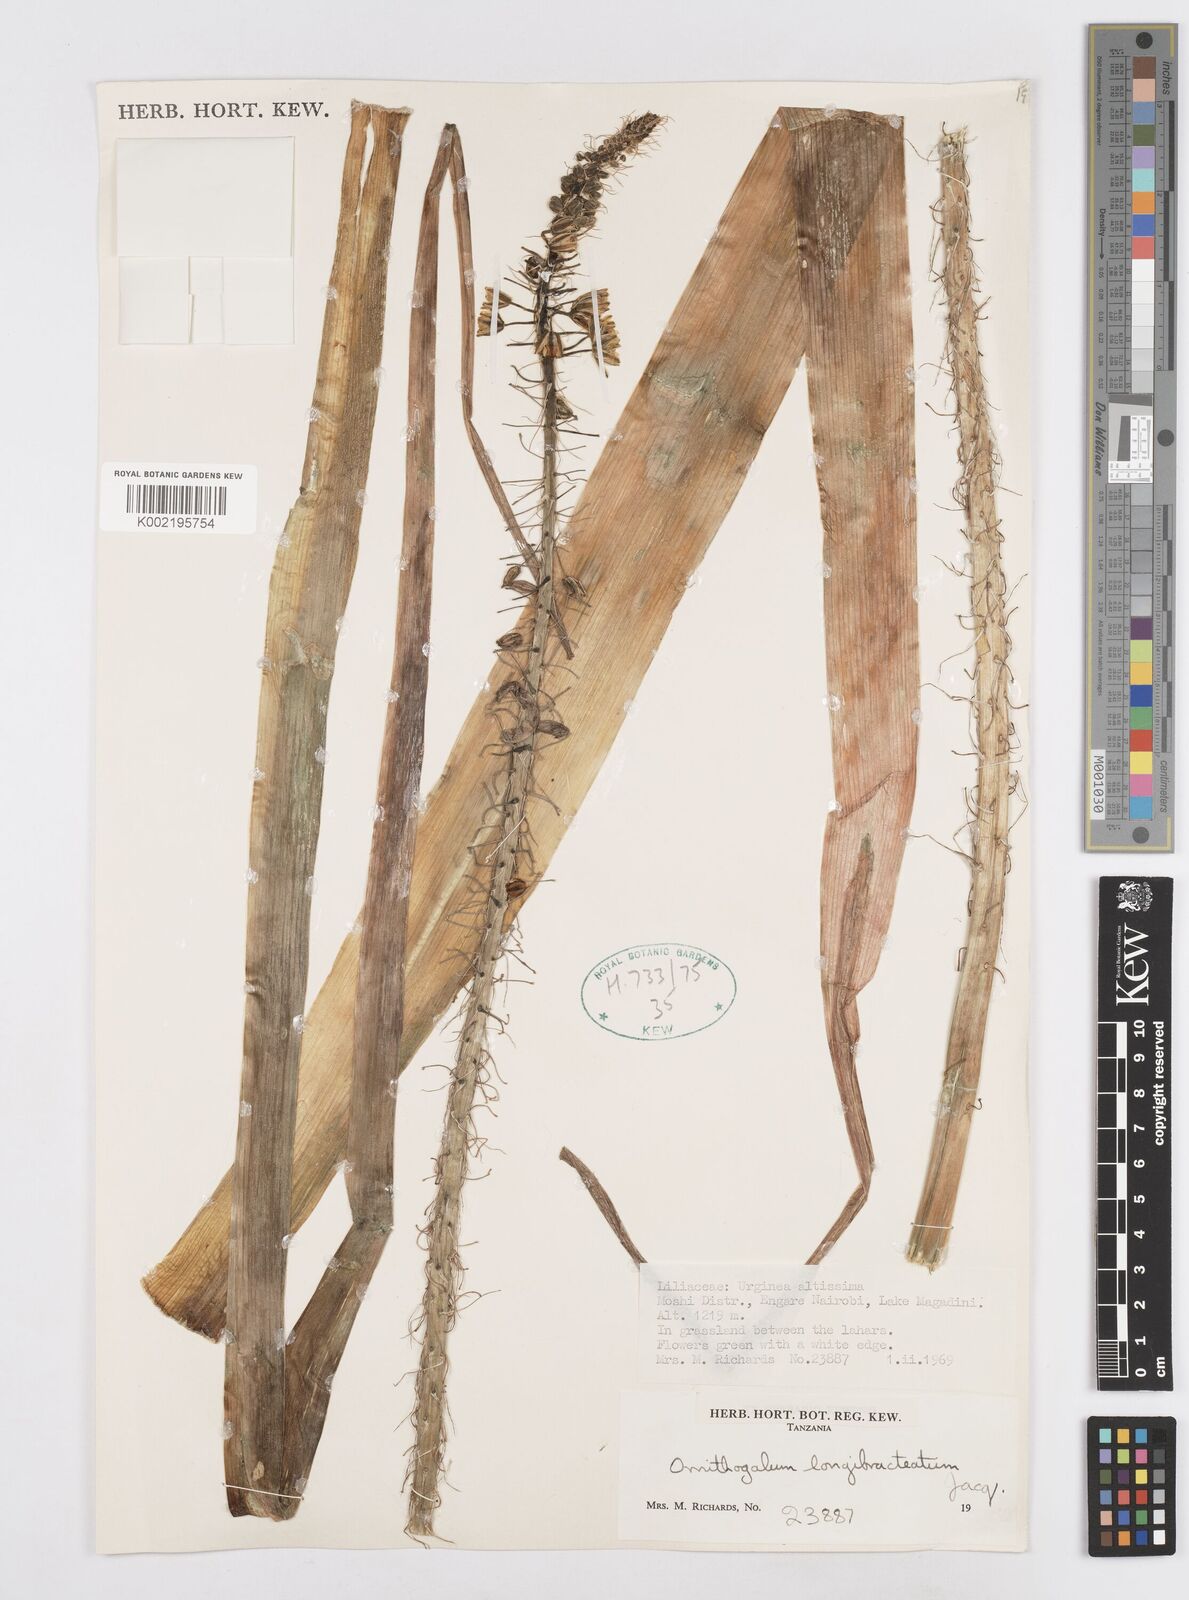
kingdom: Plantae
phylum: Tracheophyta
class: Liliopsida
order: Asparagales
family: Asparagaceae
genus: Ornithogalum
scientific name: Ornithogalum
